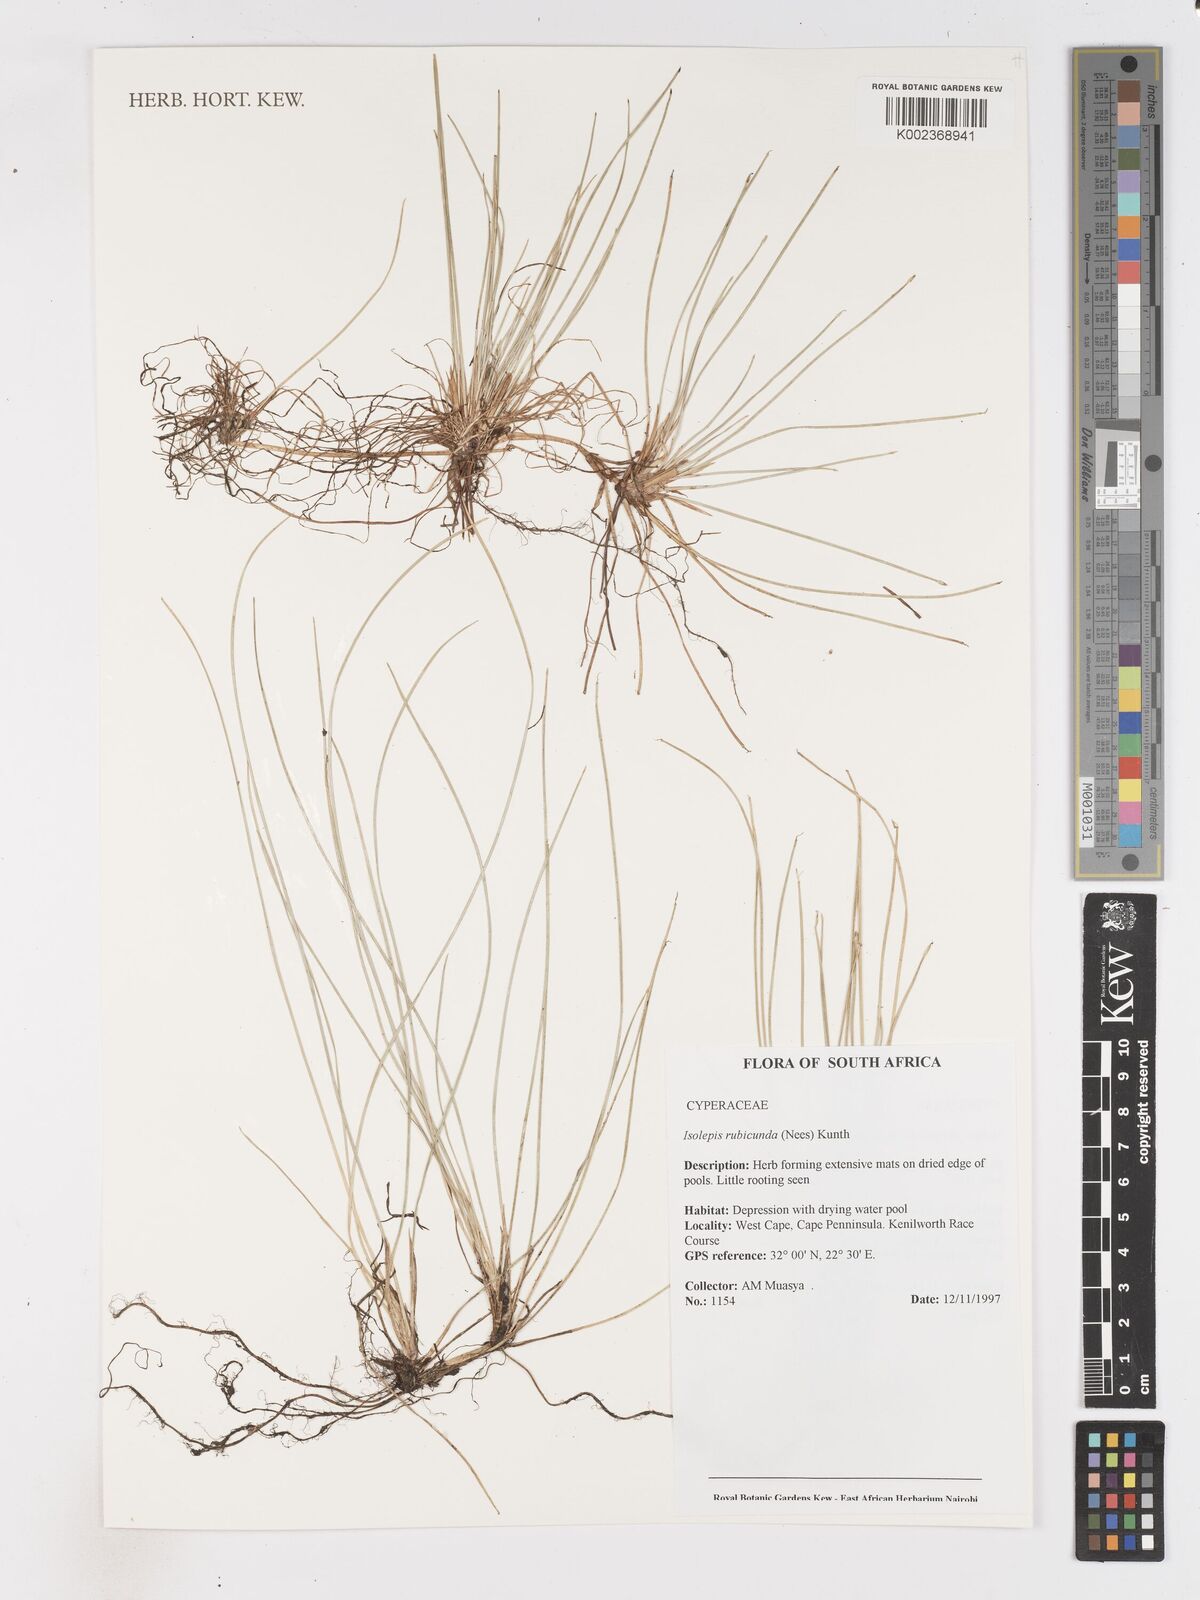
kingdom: Plantae
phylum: Tracheophyta
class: Liliopsida
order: Poales
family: Cyperaceae
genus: Isolepis
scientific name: Isolepis rubicunda
